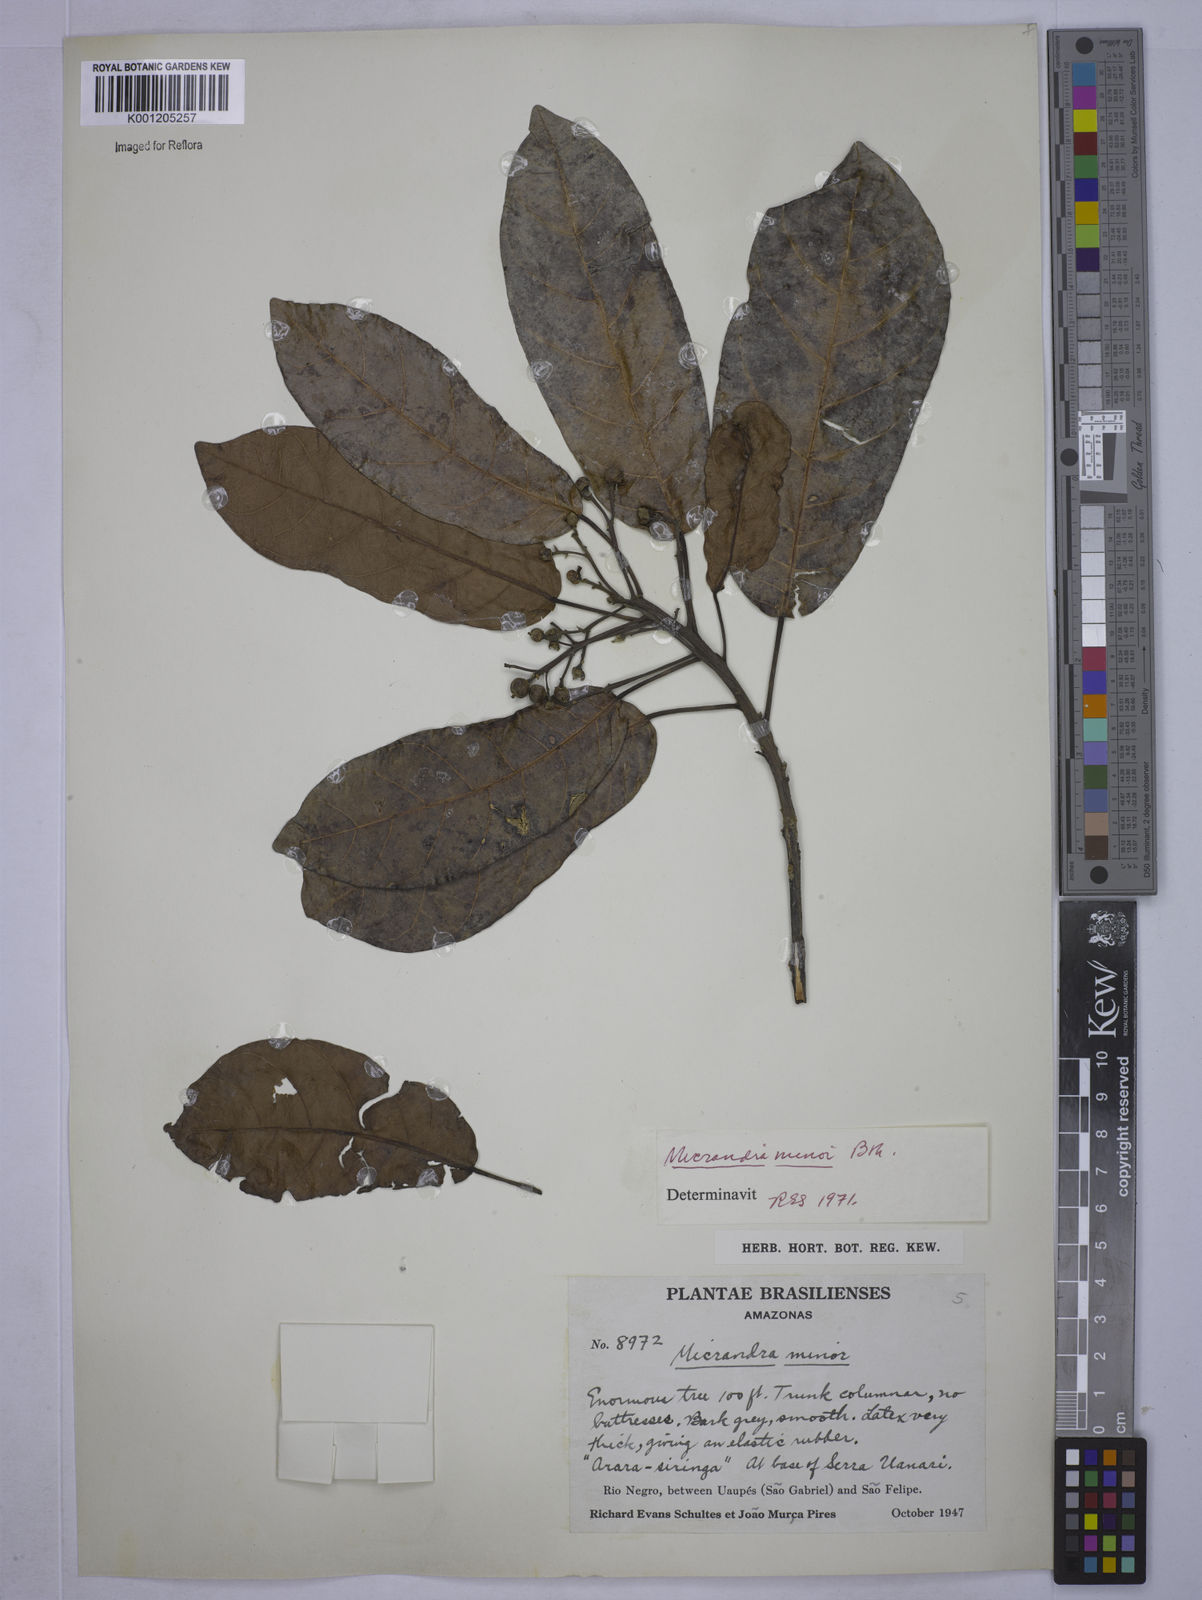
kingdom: Plantae
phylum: Tracheophyta
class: Magnoliopsida
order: Malpighiales
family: Euphorbiaceae
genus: Micrandra
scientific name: Micrandra minor
